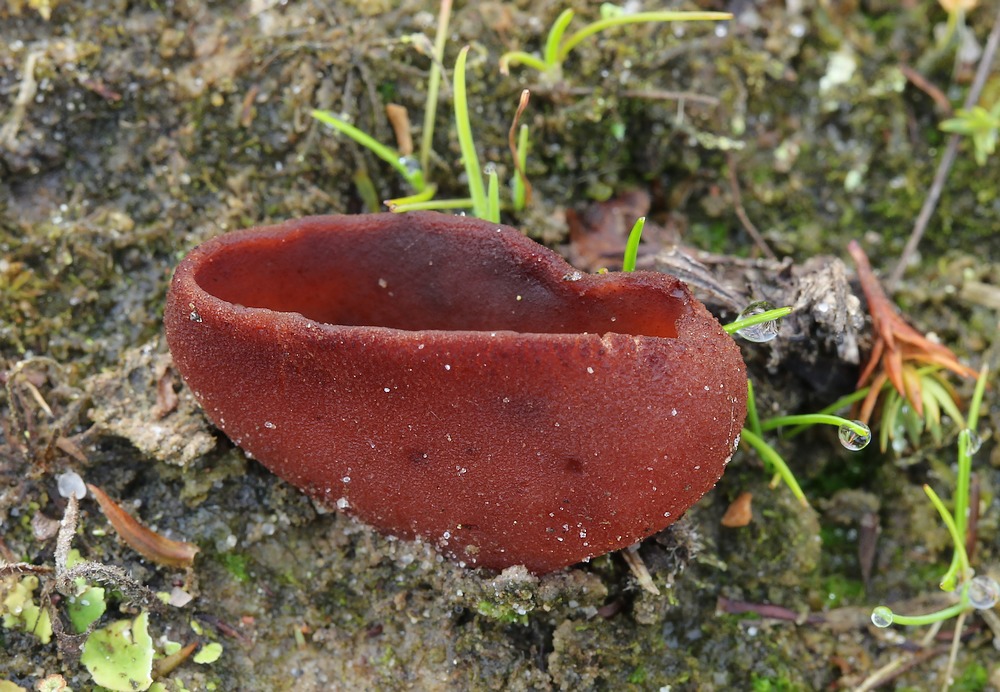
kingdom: Fungi
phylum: Ascomycota
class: Pezizomycetes
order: Pezizales
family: Pezizaceae
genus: Legaliana
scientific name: Legaliana badia
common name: leverbrun bægersvamp
